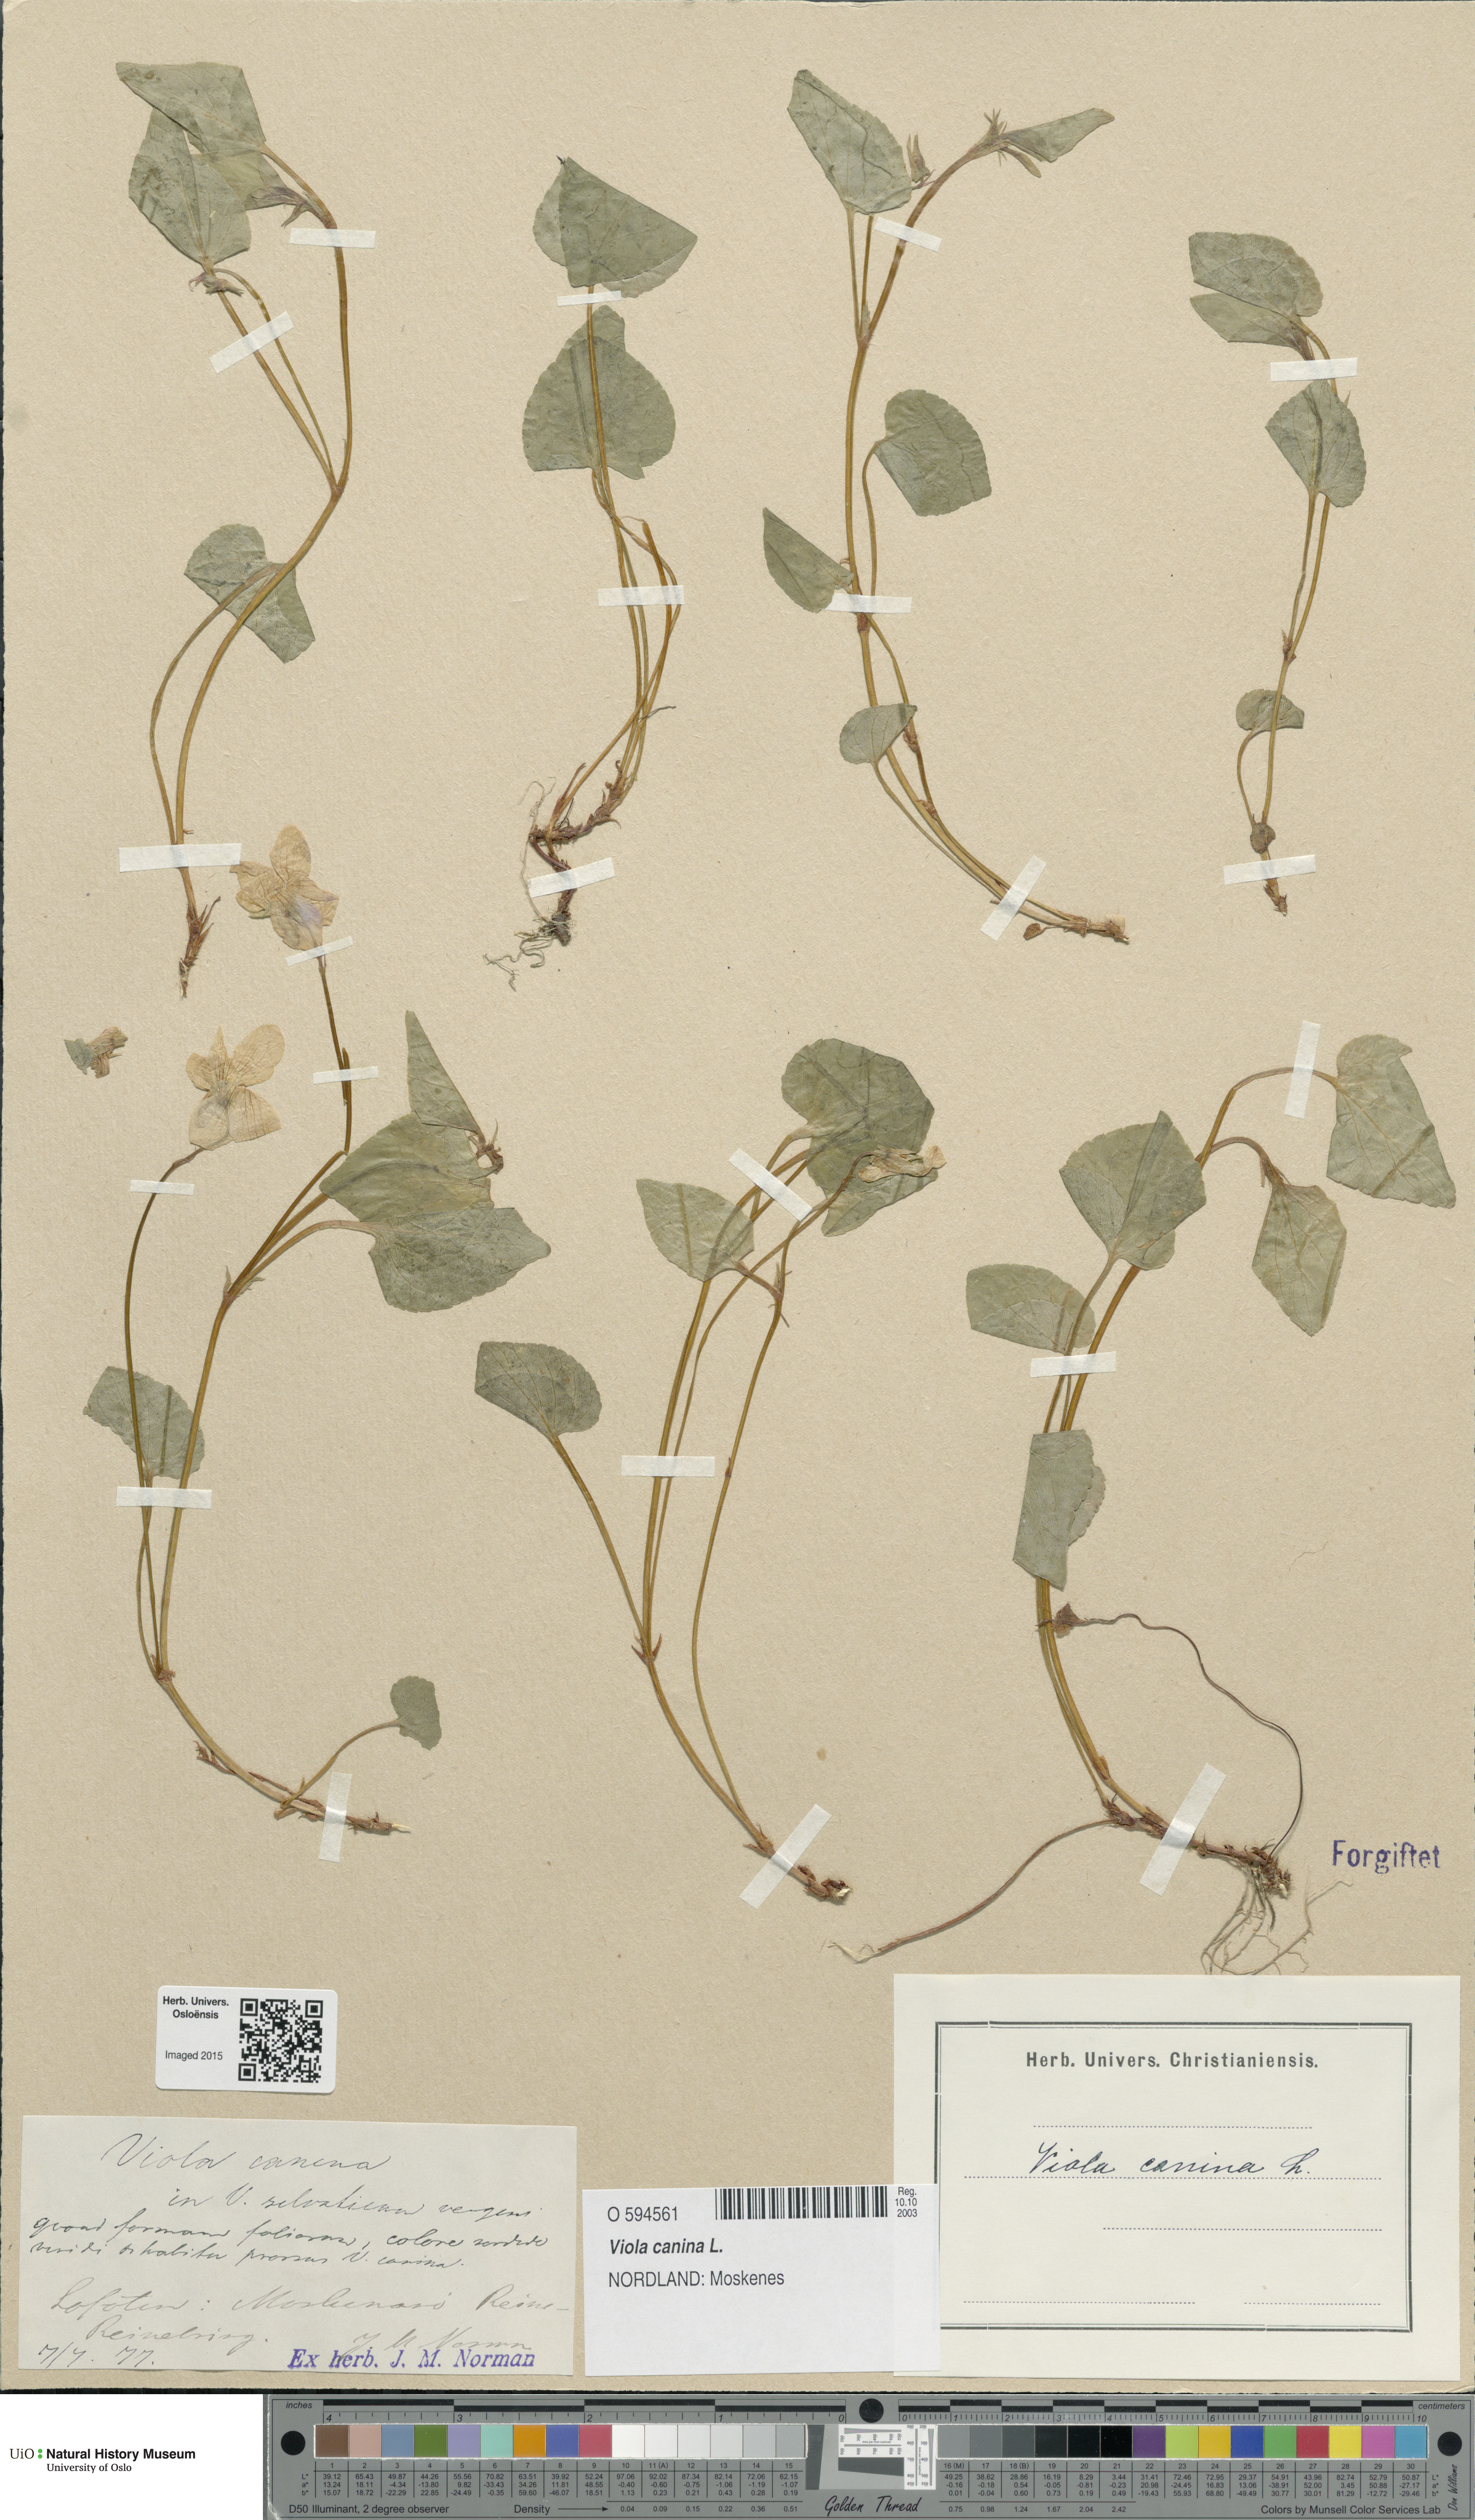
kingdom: Plantae
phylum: Tracheophyta
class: Magnoliopsida
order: Malpighiales
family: Violaceae
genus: Viola
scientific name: Viola canina
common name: Heath dog-violet
